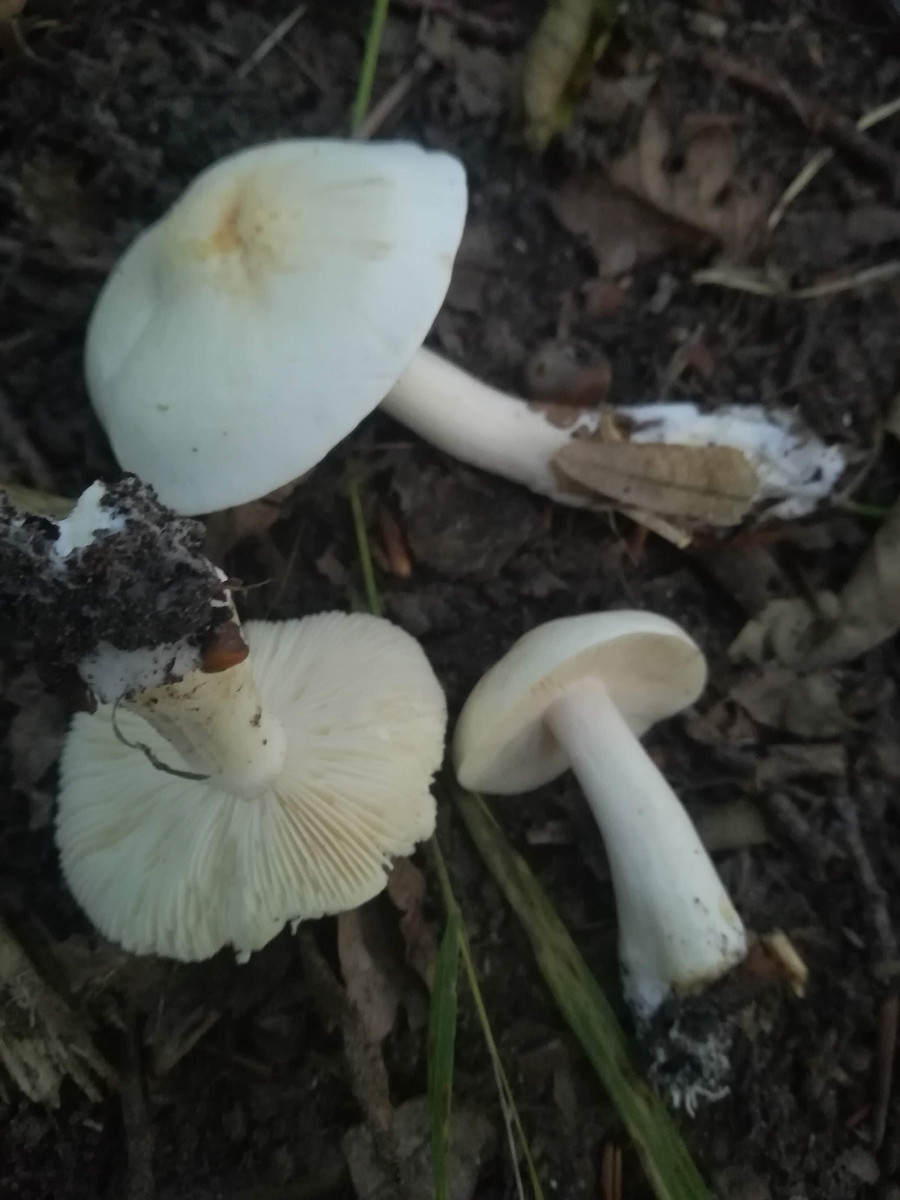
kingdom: Fungi
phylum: Basidiomycota
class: Agaricomycetes
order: Agaricales
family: Tricholomataceae
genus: Tricholoma
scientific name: Tricholoma album
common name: honning-ridderhat
